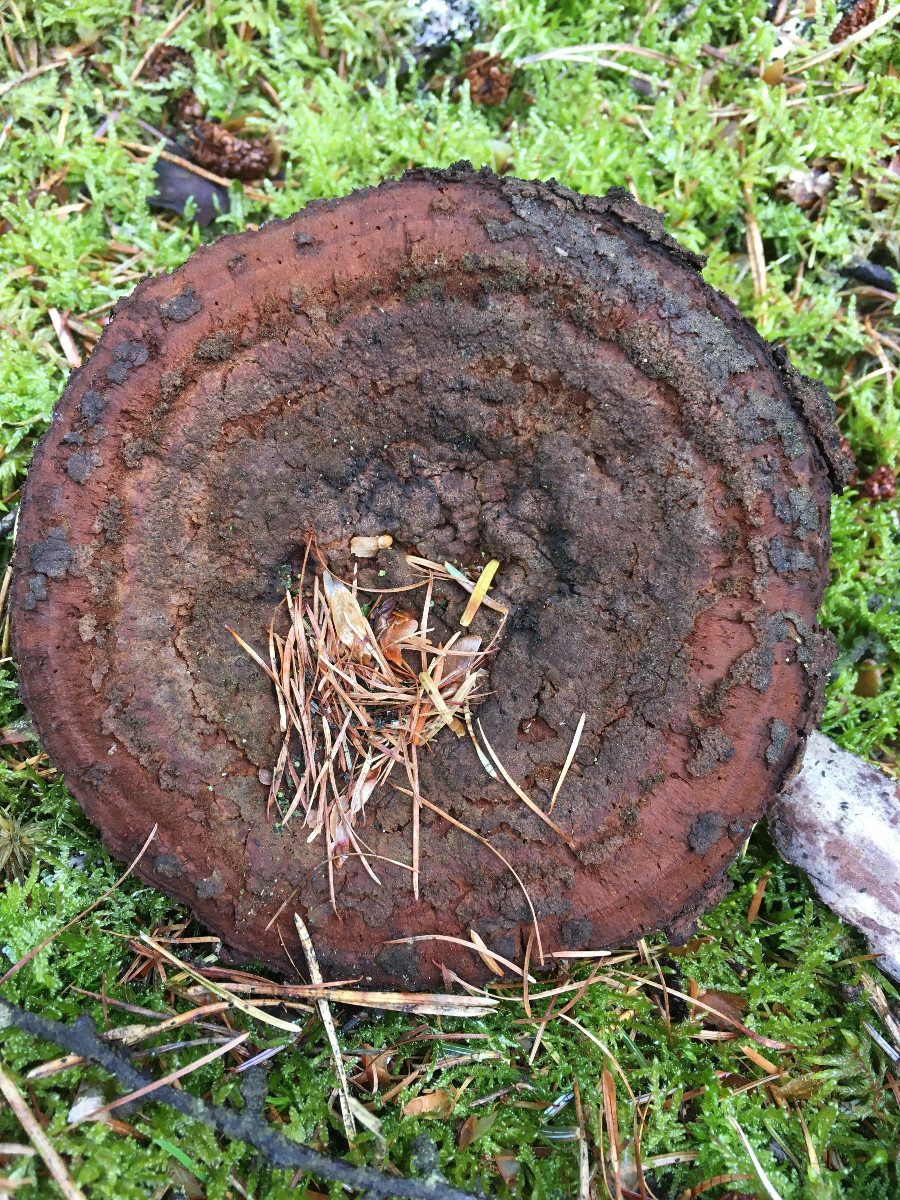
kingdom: Fungi
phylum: Basidiomycota
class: Agaricomycetes
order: Polyporales
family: Laetiporaceae
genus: Phaeolus
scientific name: Phaeolus schweinitzii
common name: brunporesvamp
